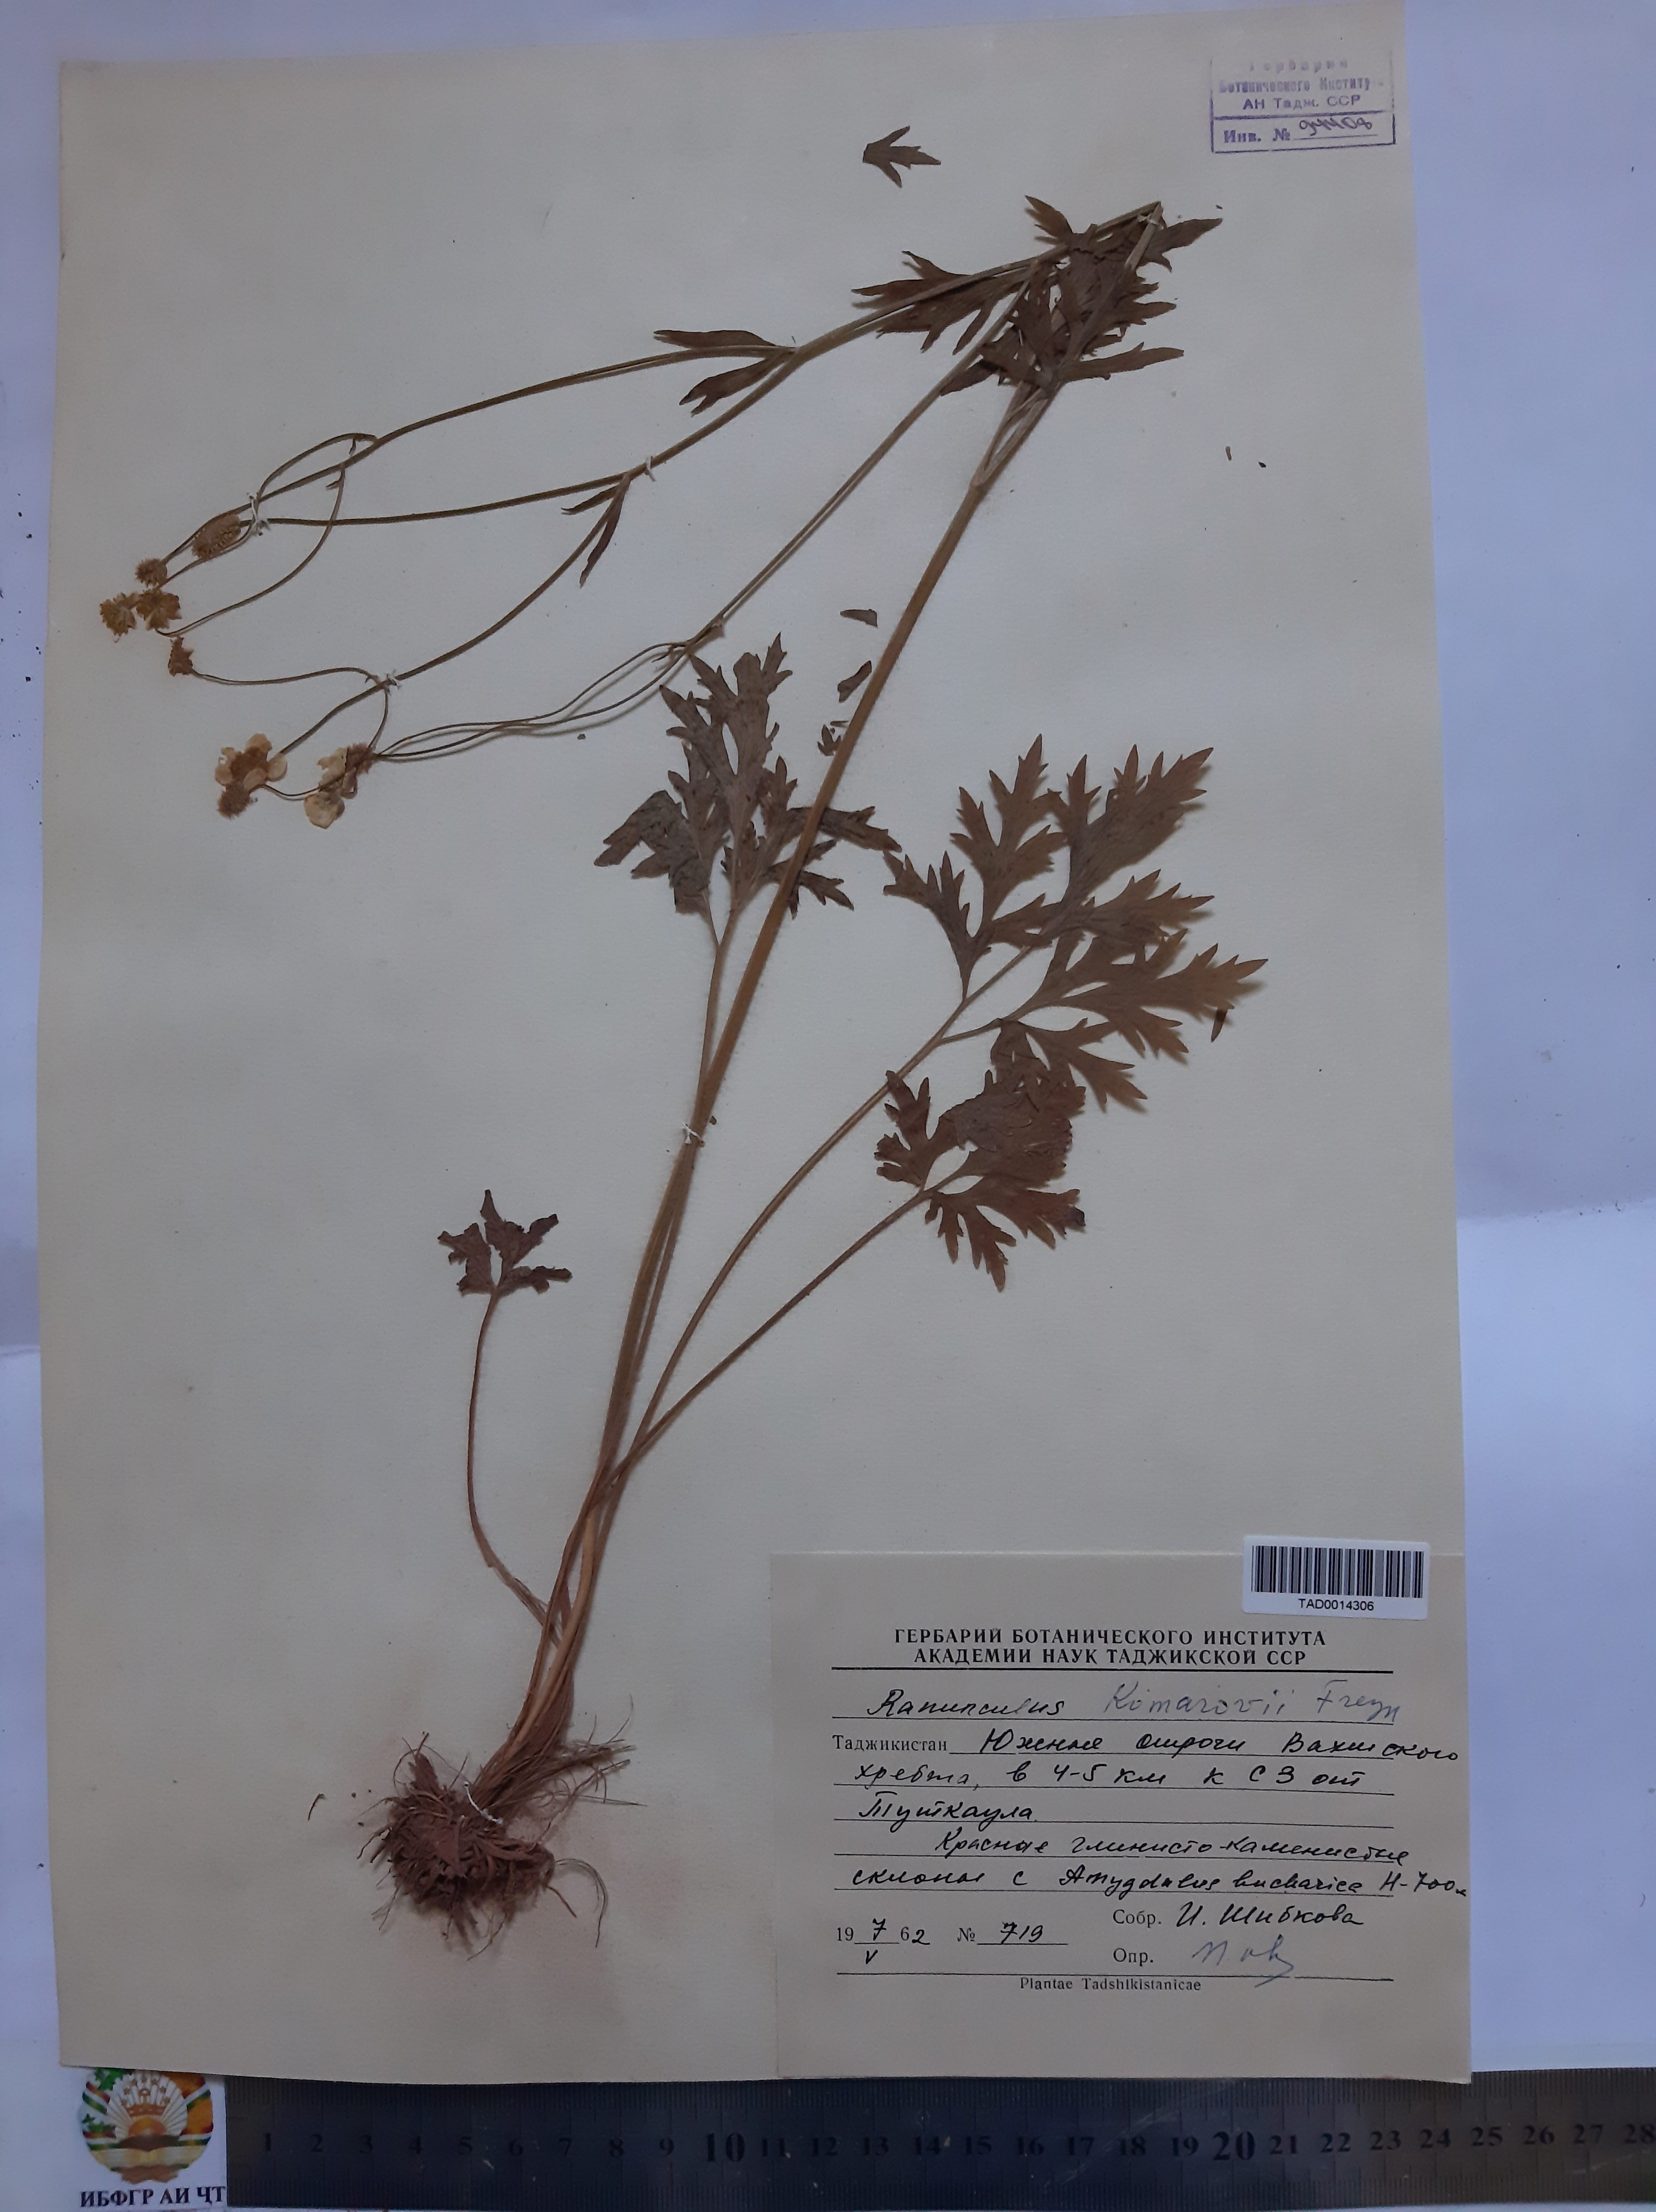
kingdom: Plantae
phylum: Tracheophyta
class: Magnoliopsida
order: Ranunculales
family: Ranunculaceae
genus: Ranunculus
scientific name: Ranunculus komarovii
